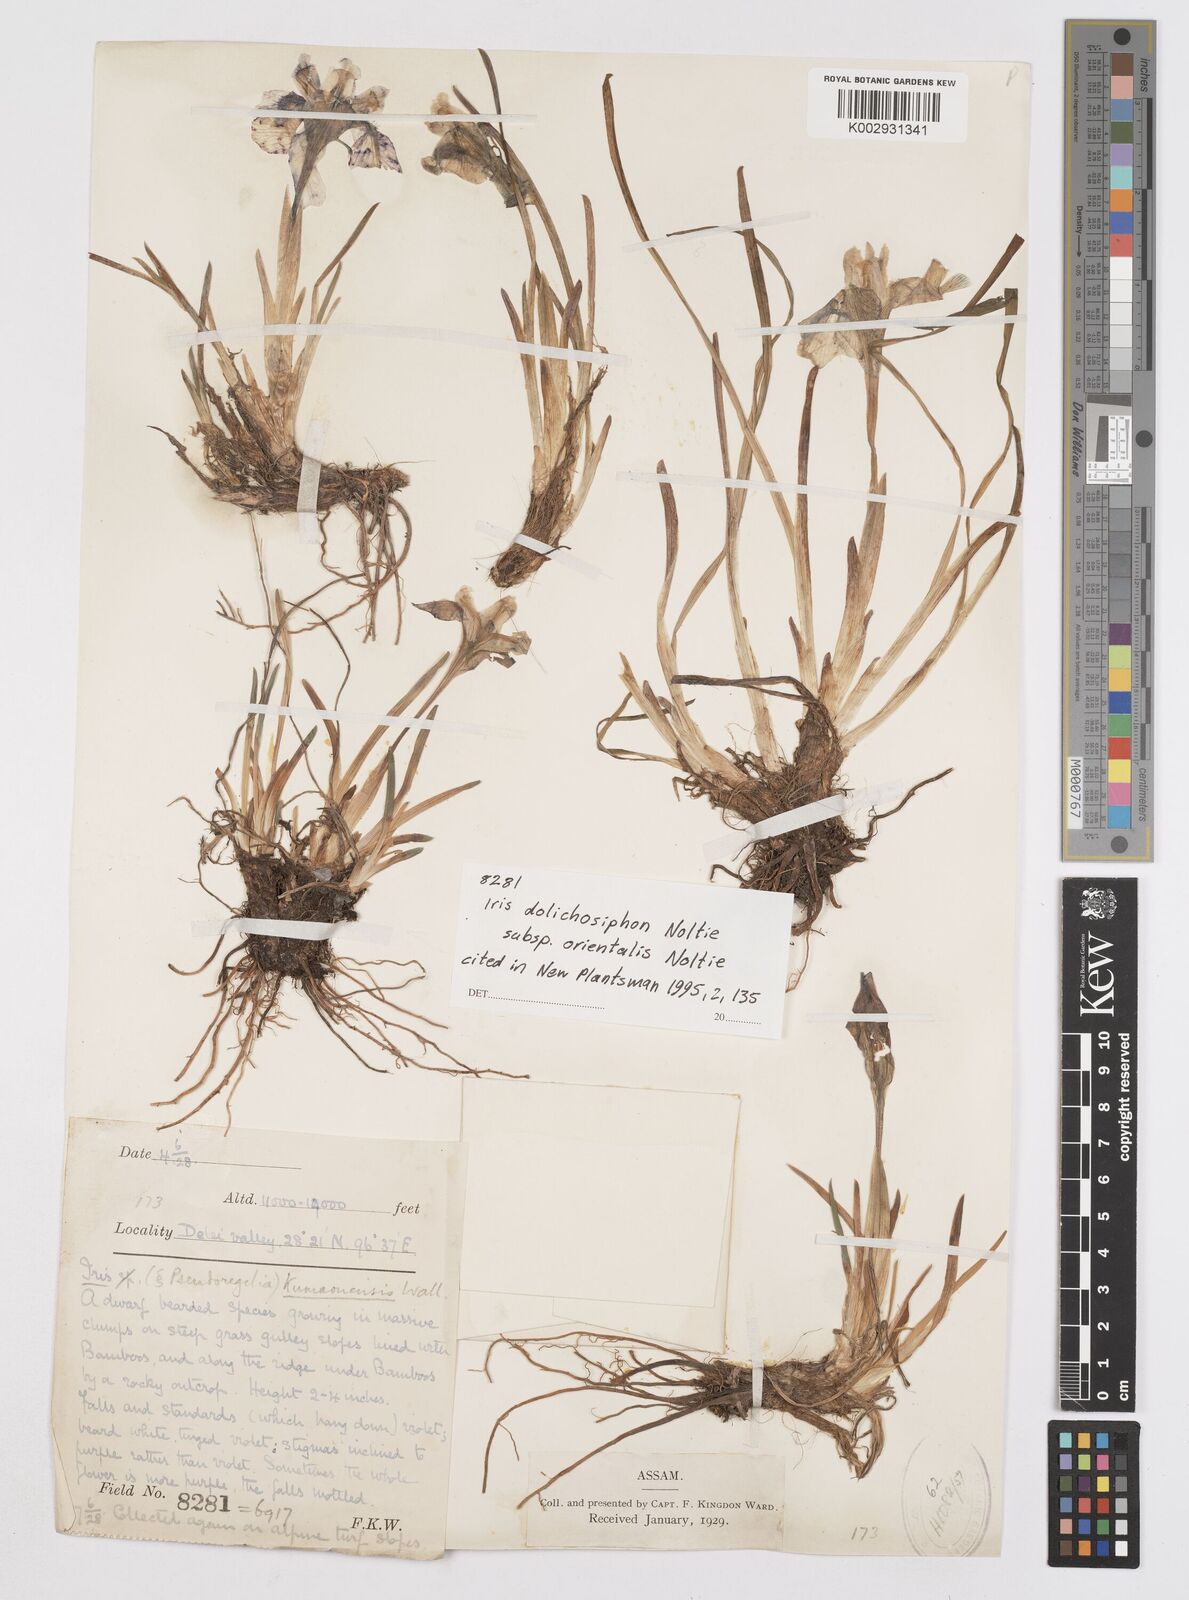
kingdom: Plantae
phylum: Tracheophyta
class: Liliopsida
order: Asparagales
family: Iridaceae
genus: Iris
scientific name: Iris dolichosiphon
